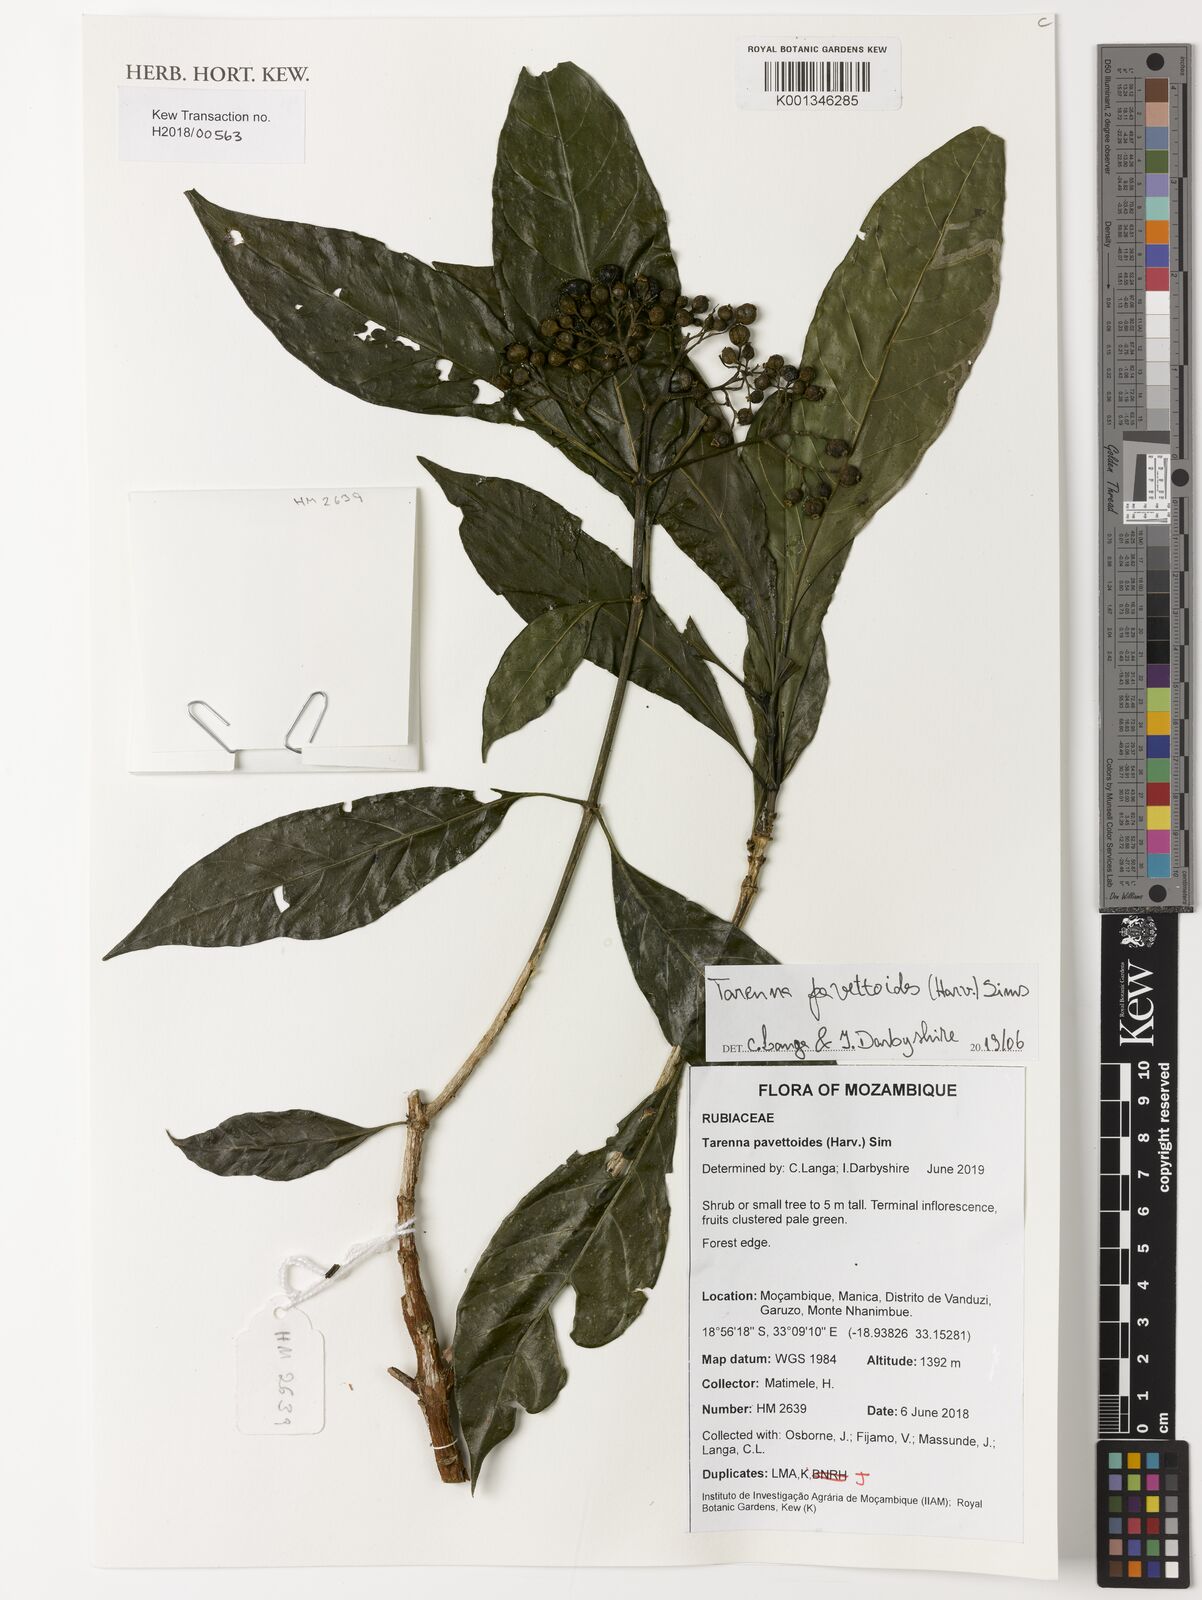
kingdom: Plantae
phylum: Tracheophyta
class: Magnoliopsida
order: Gentianales
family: Rubiaceae
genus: Tarenna
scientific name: Tarenna pavettoides
